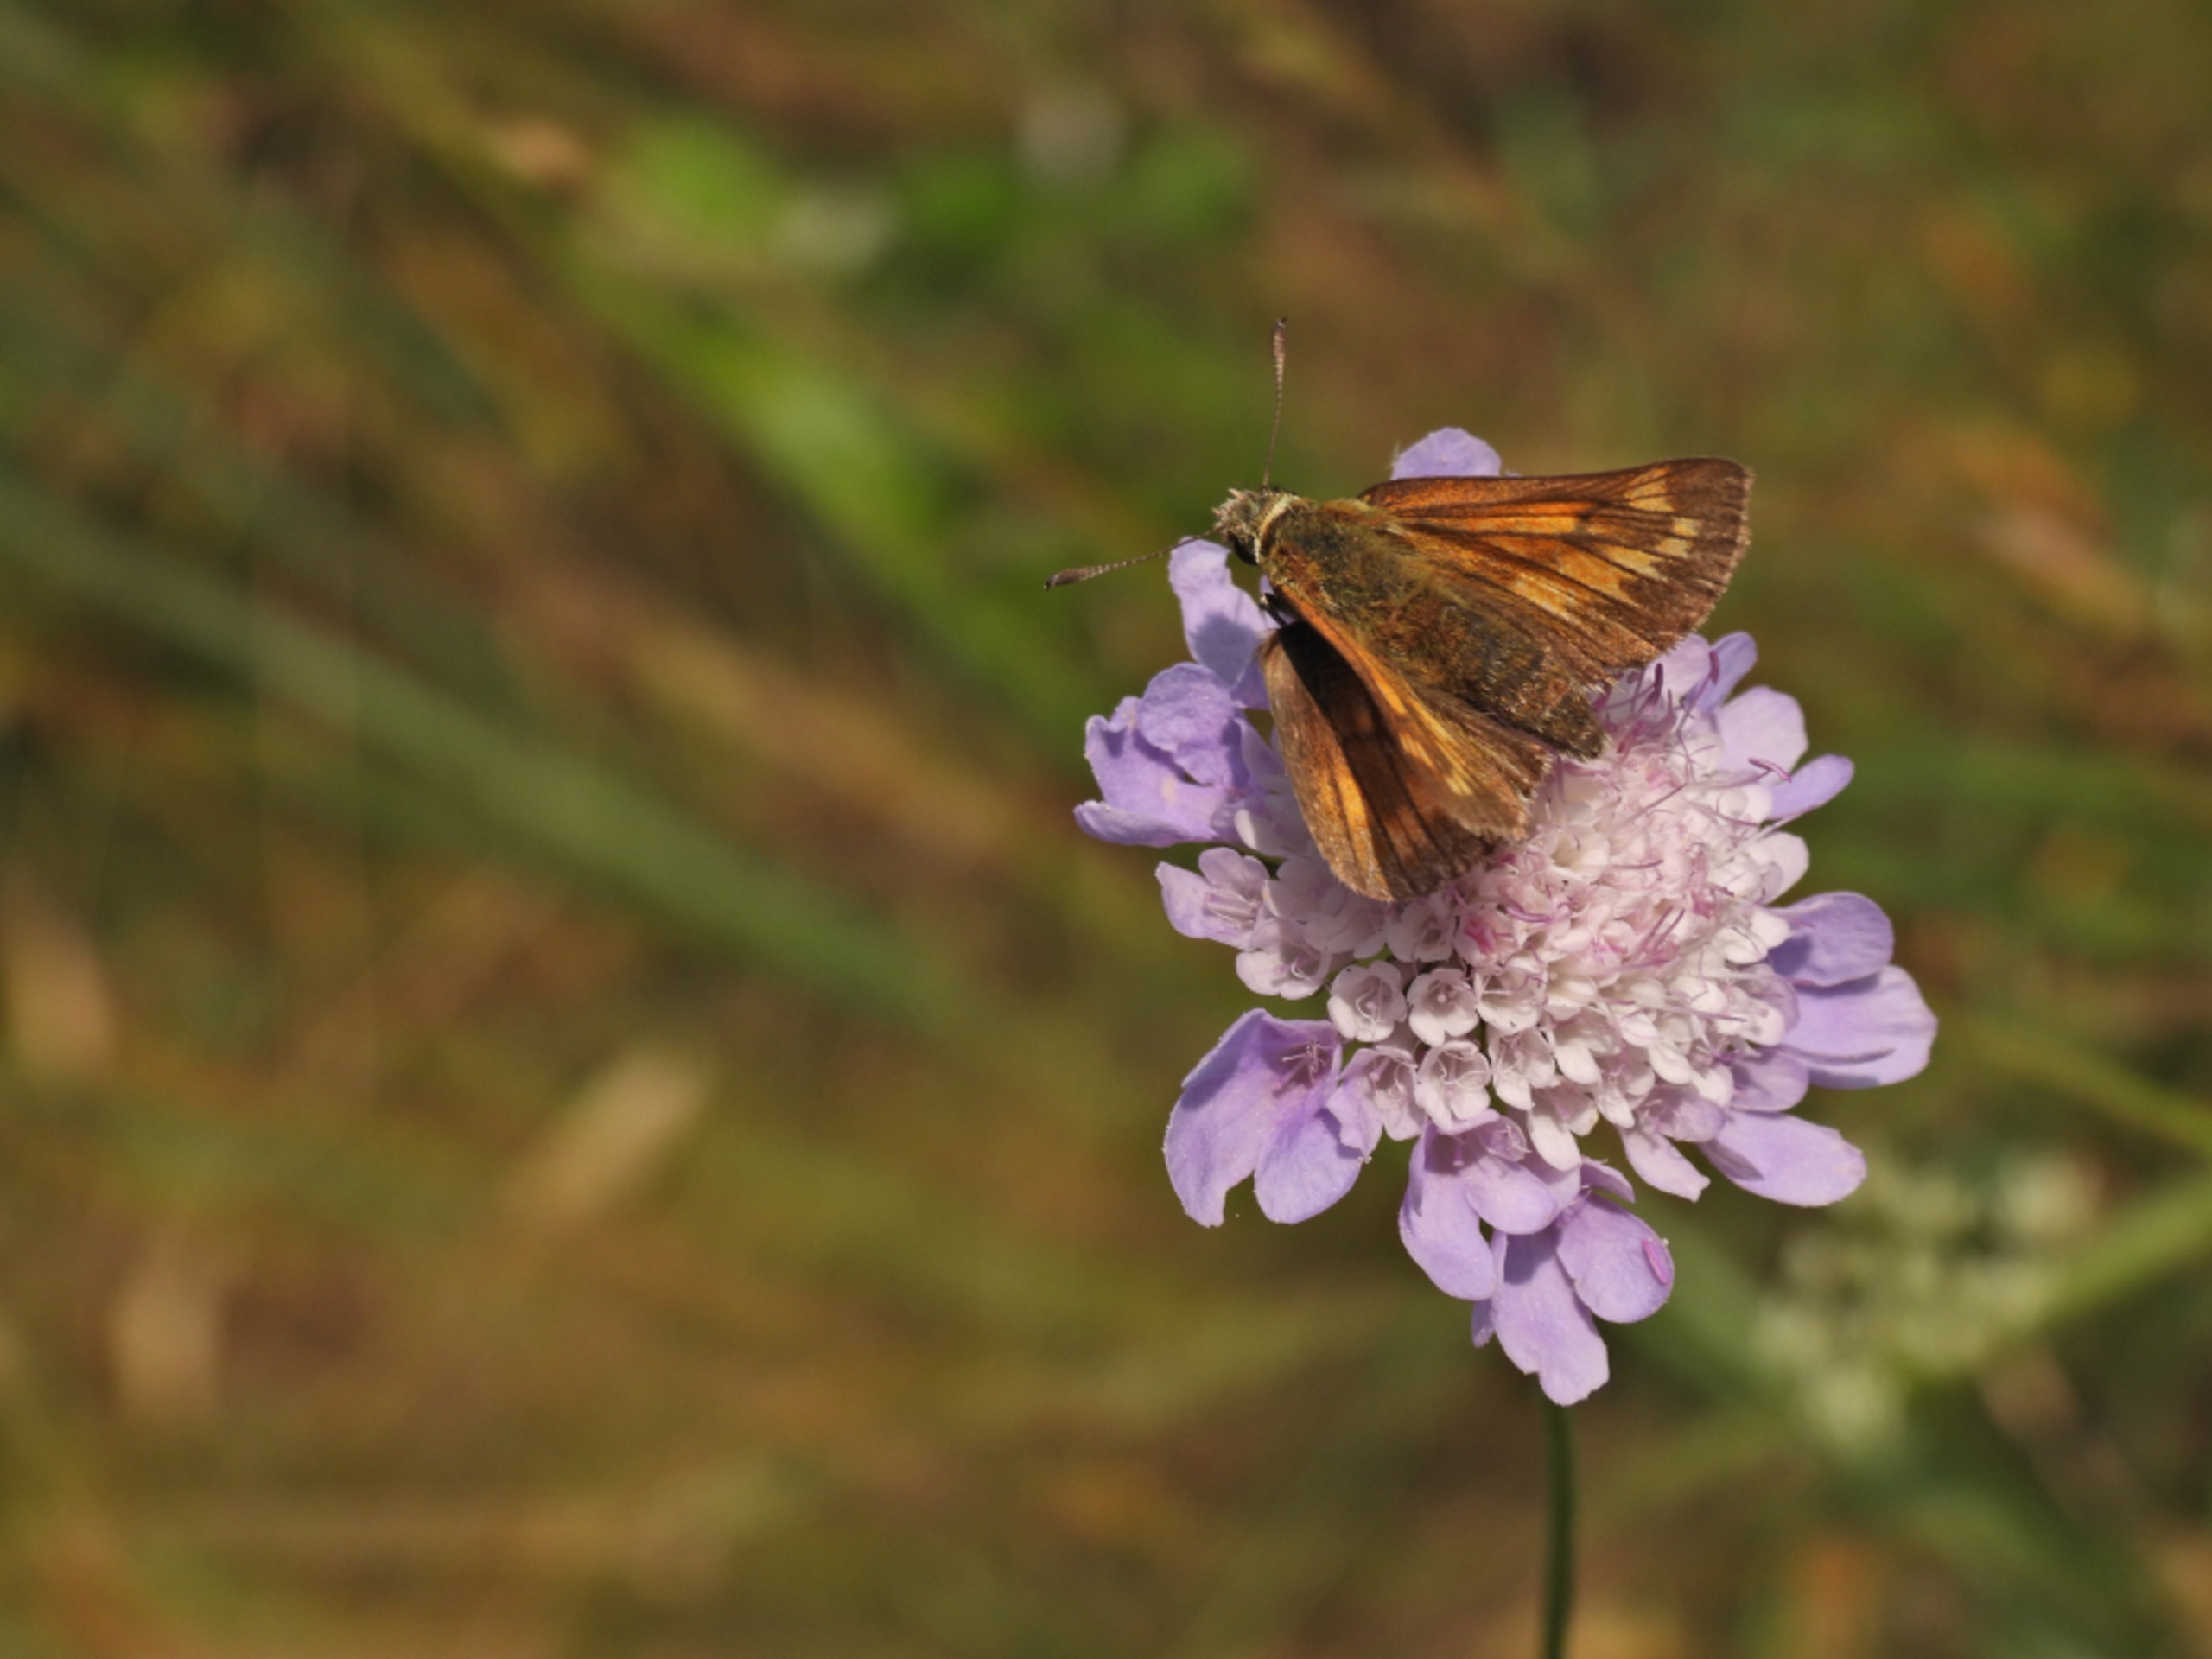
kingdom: Animalia
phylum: Arthropoda
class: Insecta
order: Lepidoptera
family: Hesperiidae
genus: Ochlodes
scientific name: Ochlodes venata
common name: Stor bredpande
